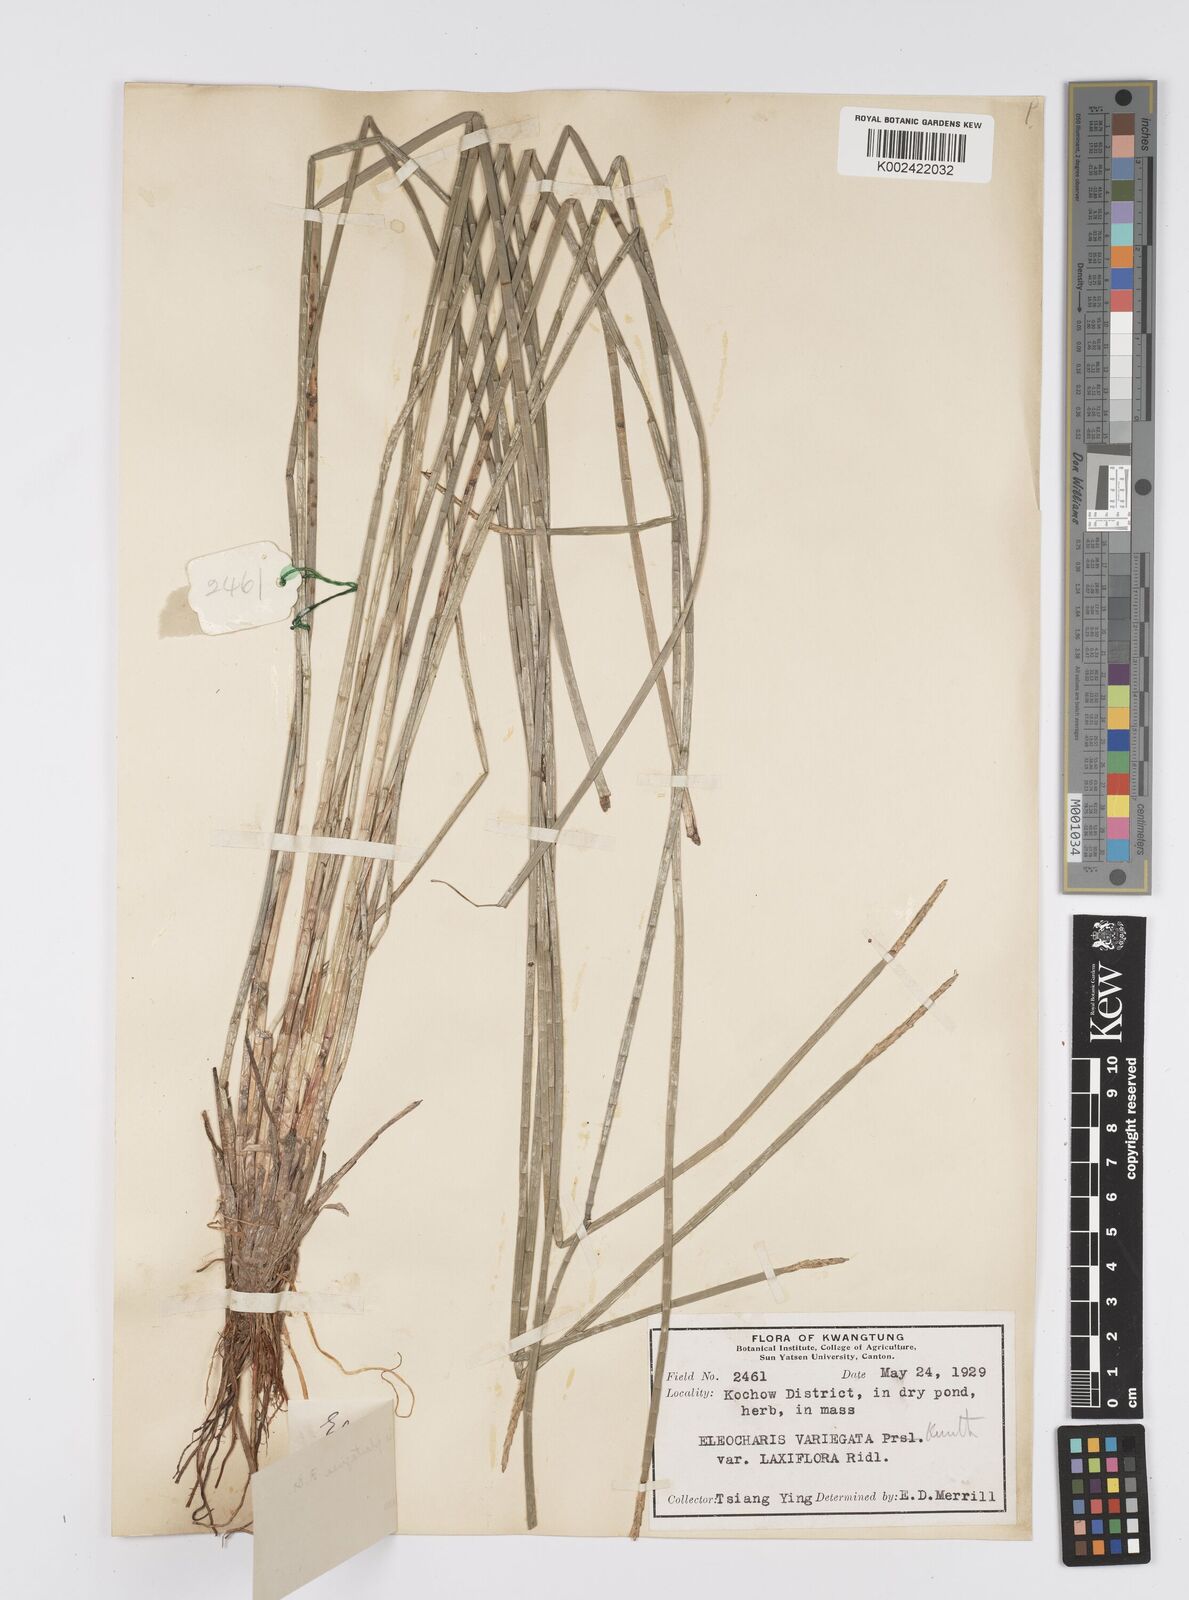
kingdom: Plantae
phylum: Tracheophyta
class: Liliopsida
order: Poales
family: Cyperaceae
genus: Eleocharis
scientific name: Eleocharis dulcis
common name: Chinese water chestnut
